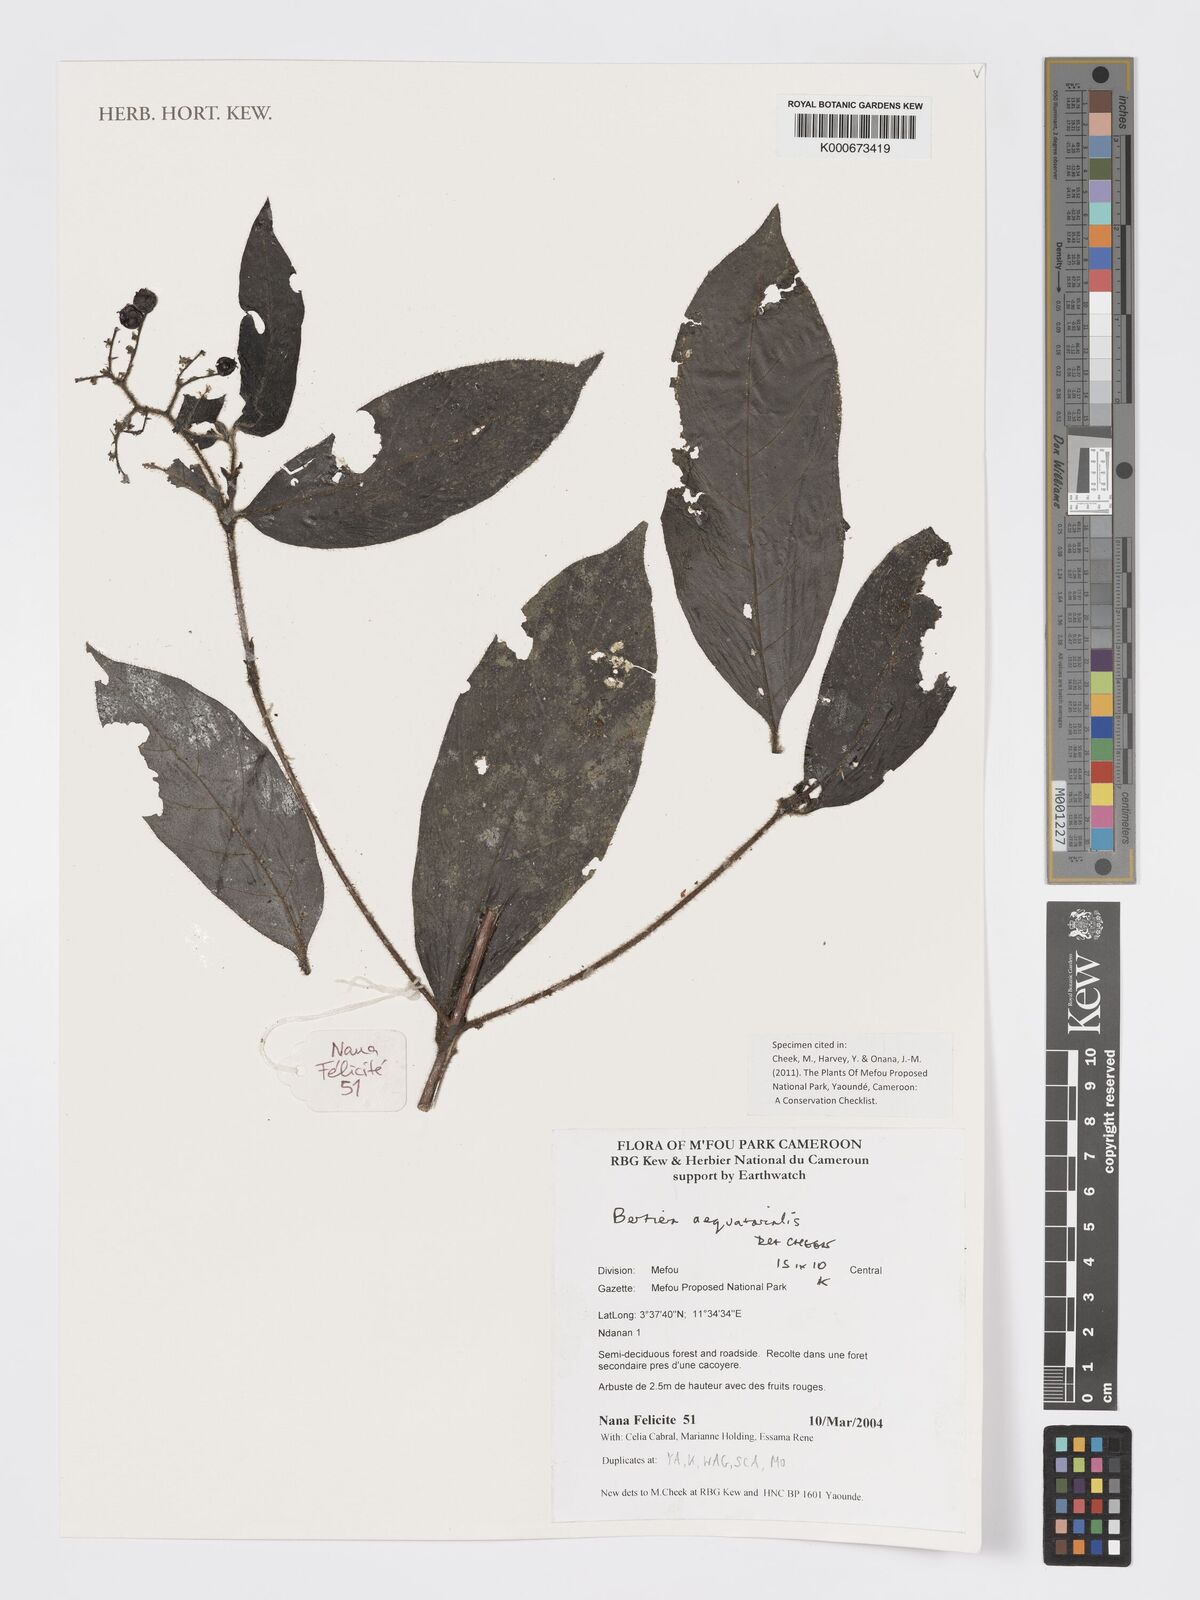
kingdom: Plantae
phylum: Tracheophyta
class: Magnoliopsida
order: Gentianales
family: Rubiaceae
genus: Bertiera
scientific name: Bertiera
